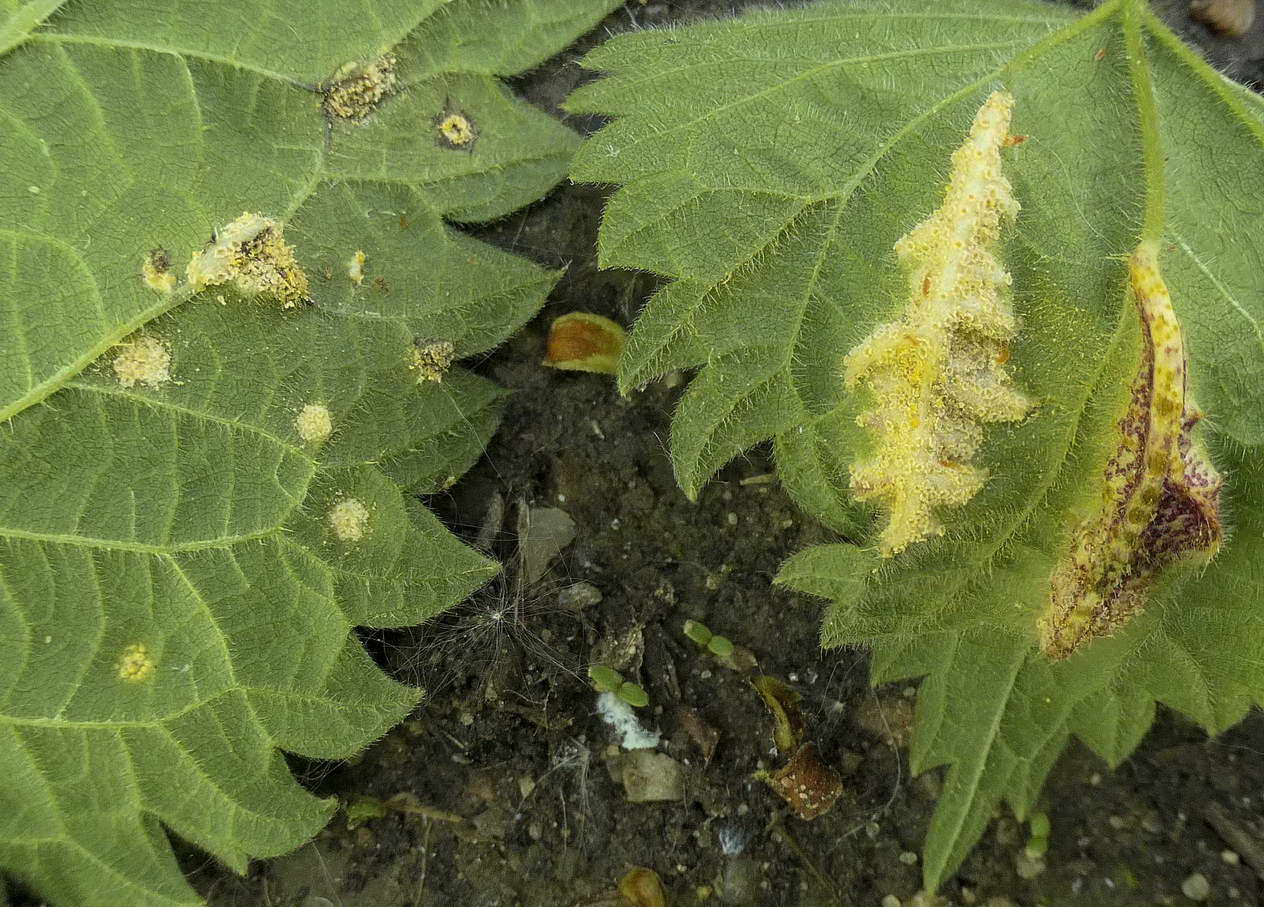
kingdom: Fungi
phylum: Basidiomycota
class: Pucciniomycetes
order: Pucciniales
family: Pucciniaceae
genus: Puccinia
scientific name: Puccinia urticata
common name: nældegalle-tvecellerust
